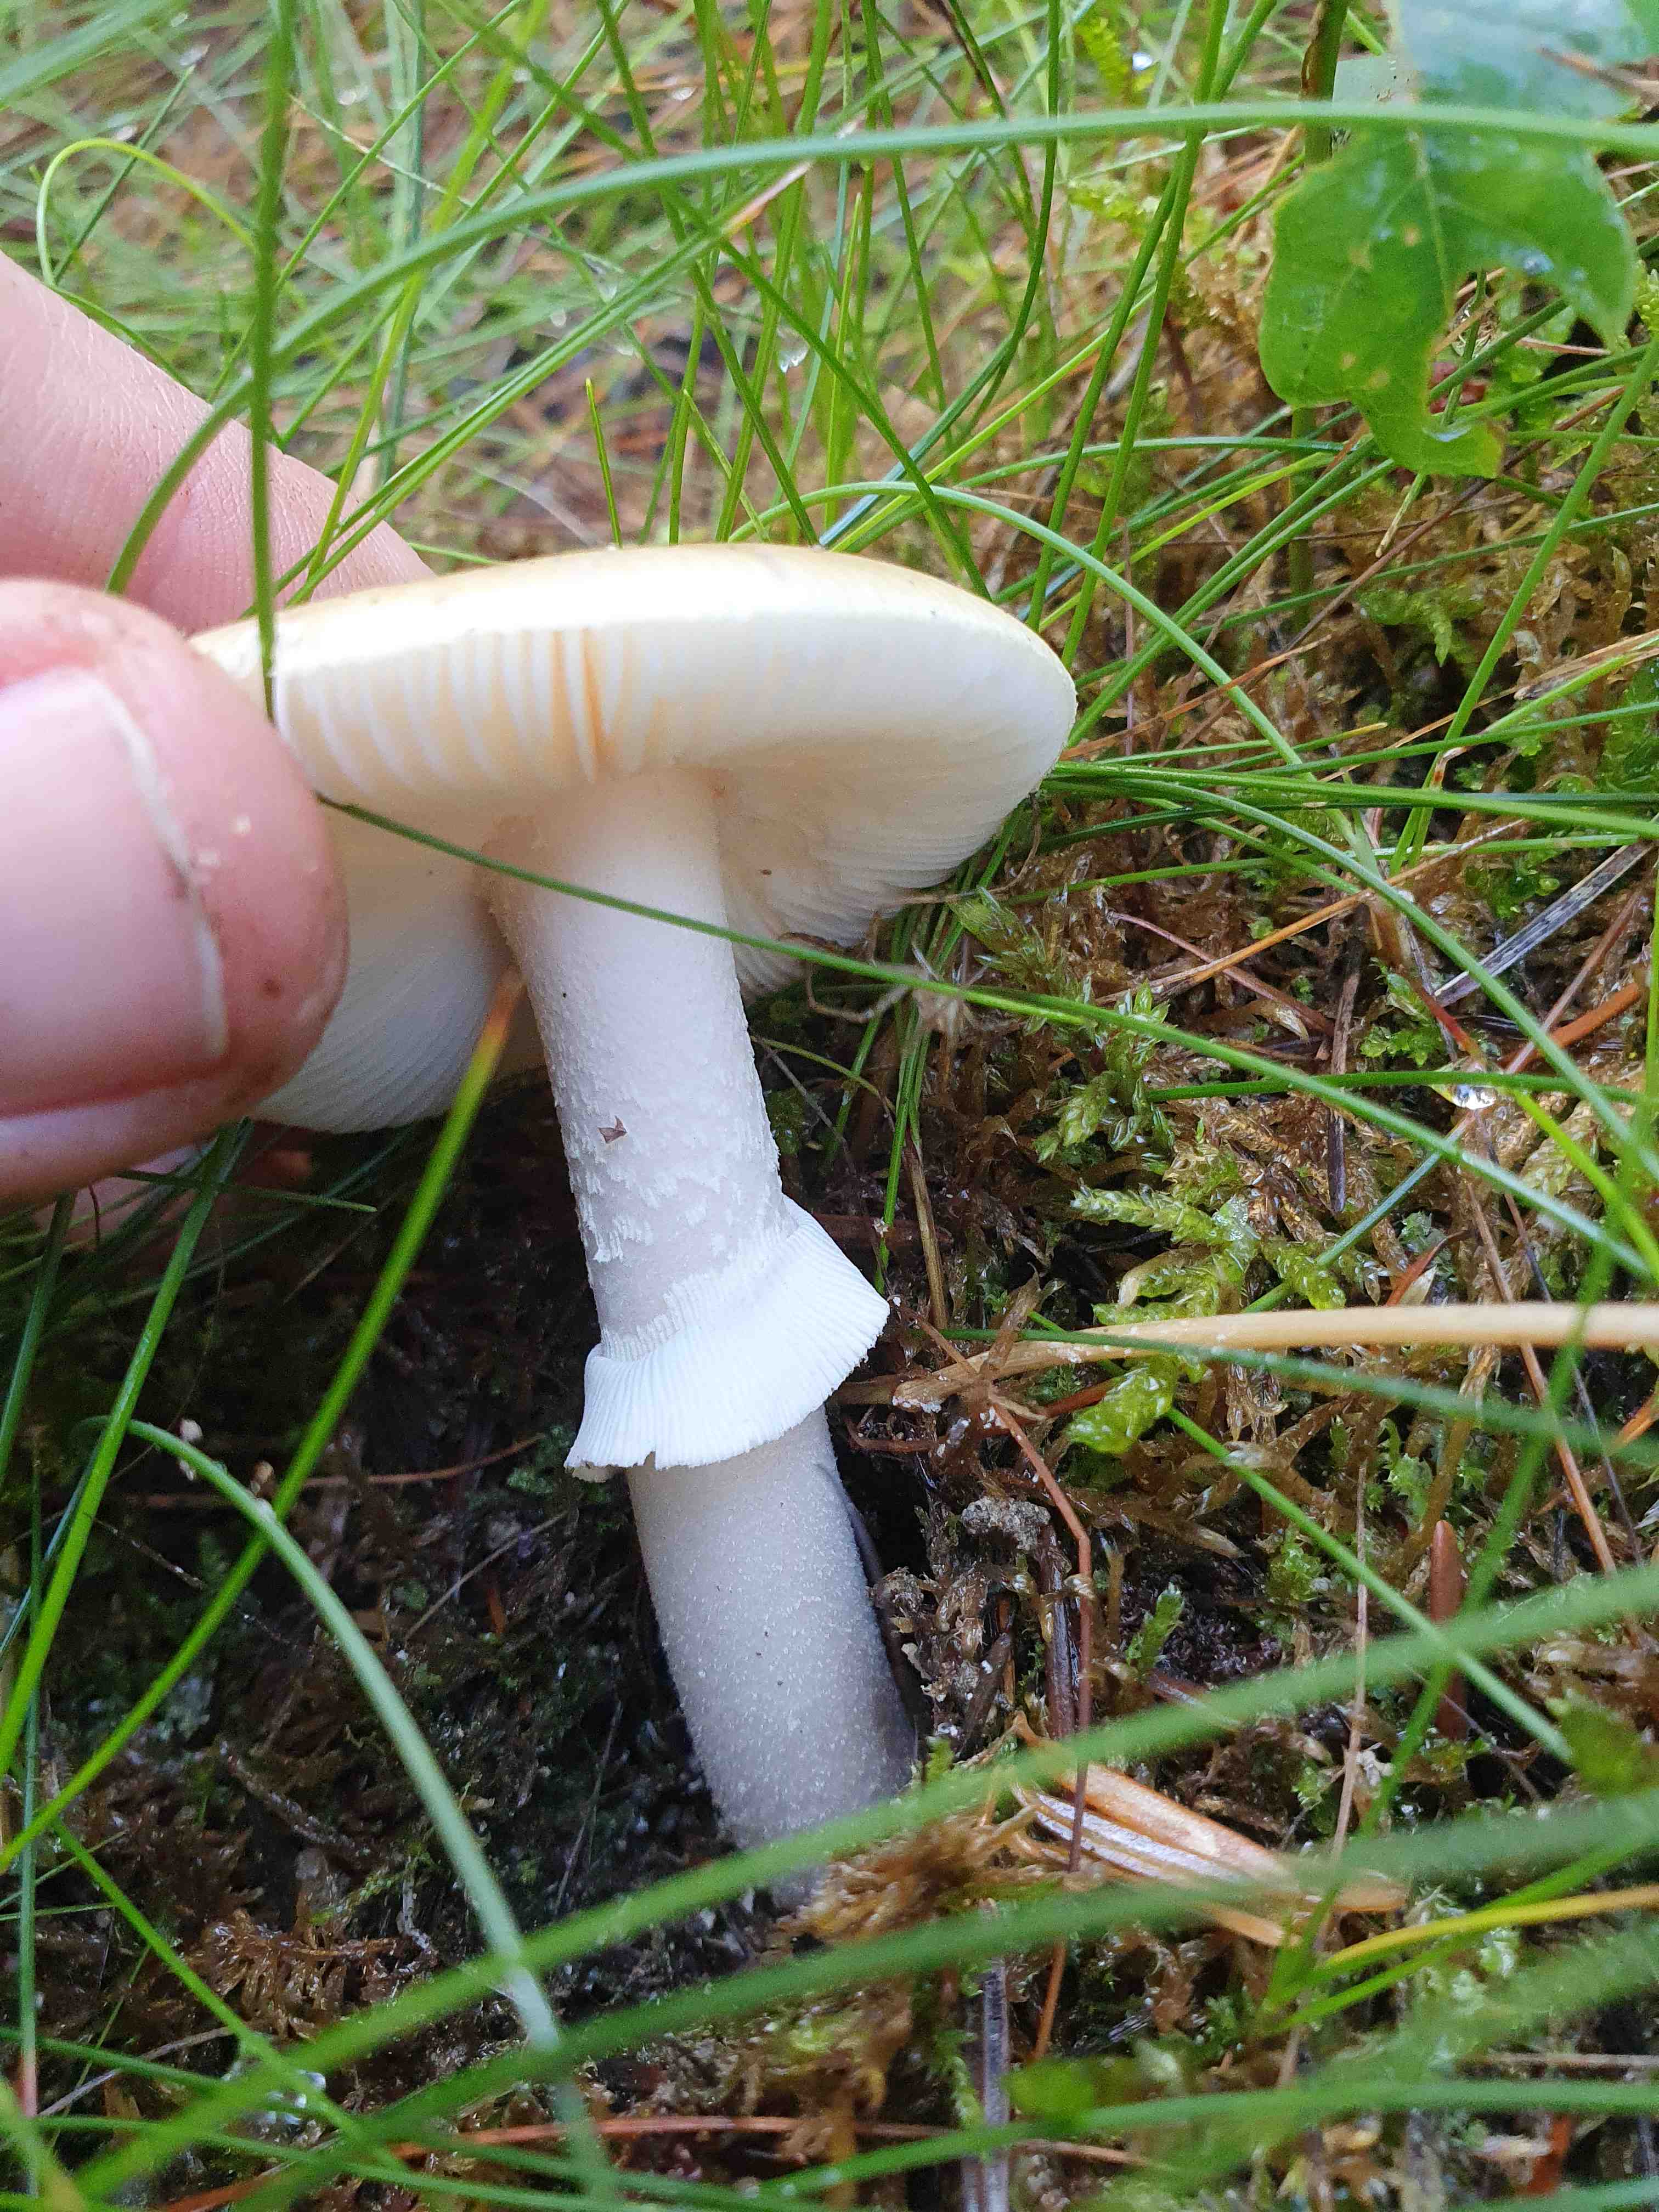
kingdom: Fungi
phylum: Basidiomycota
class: Agaricomycetes
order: Agaricales
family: Amanitaceae
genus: Amanita
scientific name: Amanita
